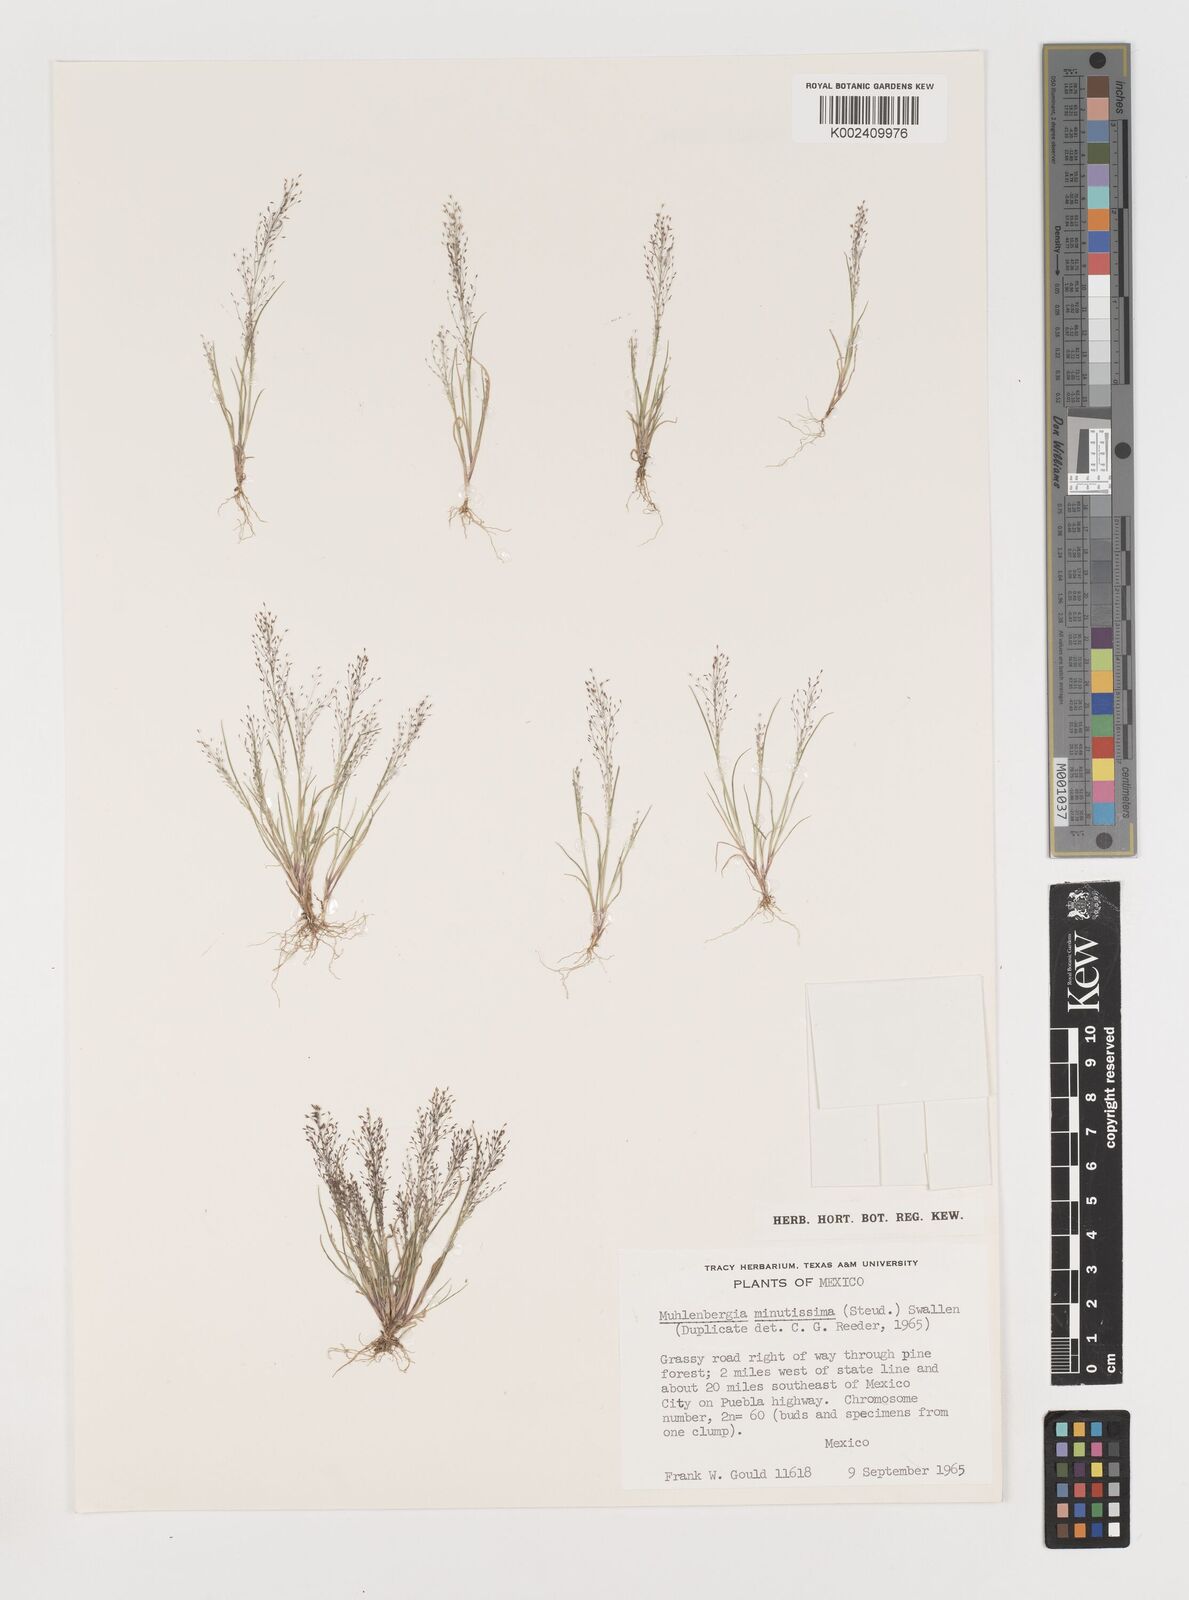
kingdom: Plantae
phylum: Tracheophyta
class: Liliopsida
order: Poales
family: Poaceae
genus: Muhlenbergia
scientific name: Muhlenbergia minutissima
